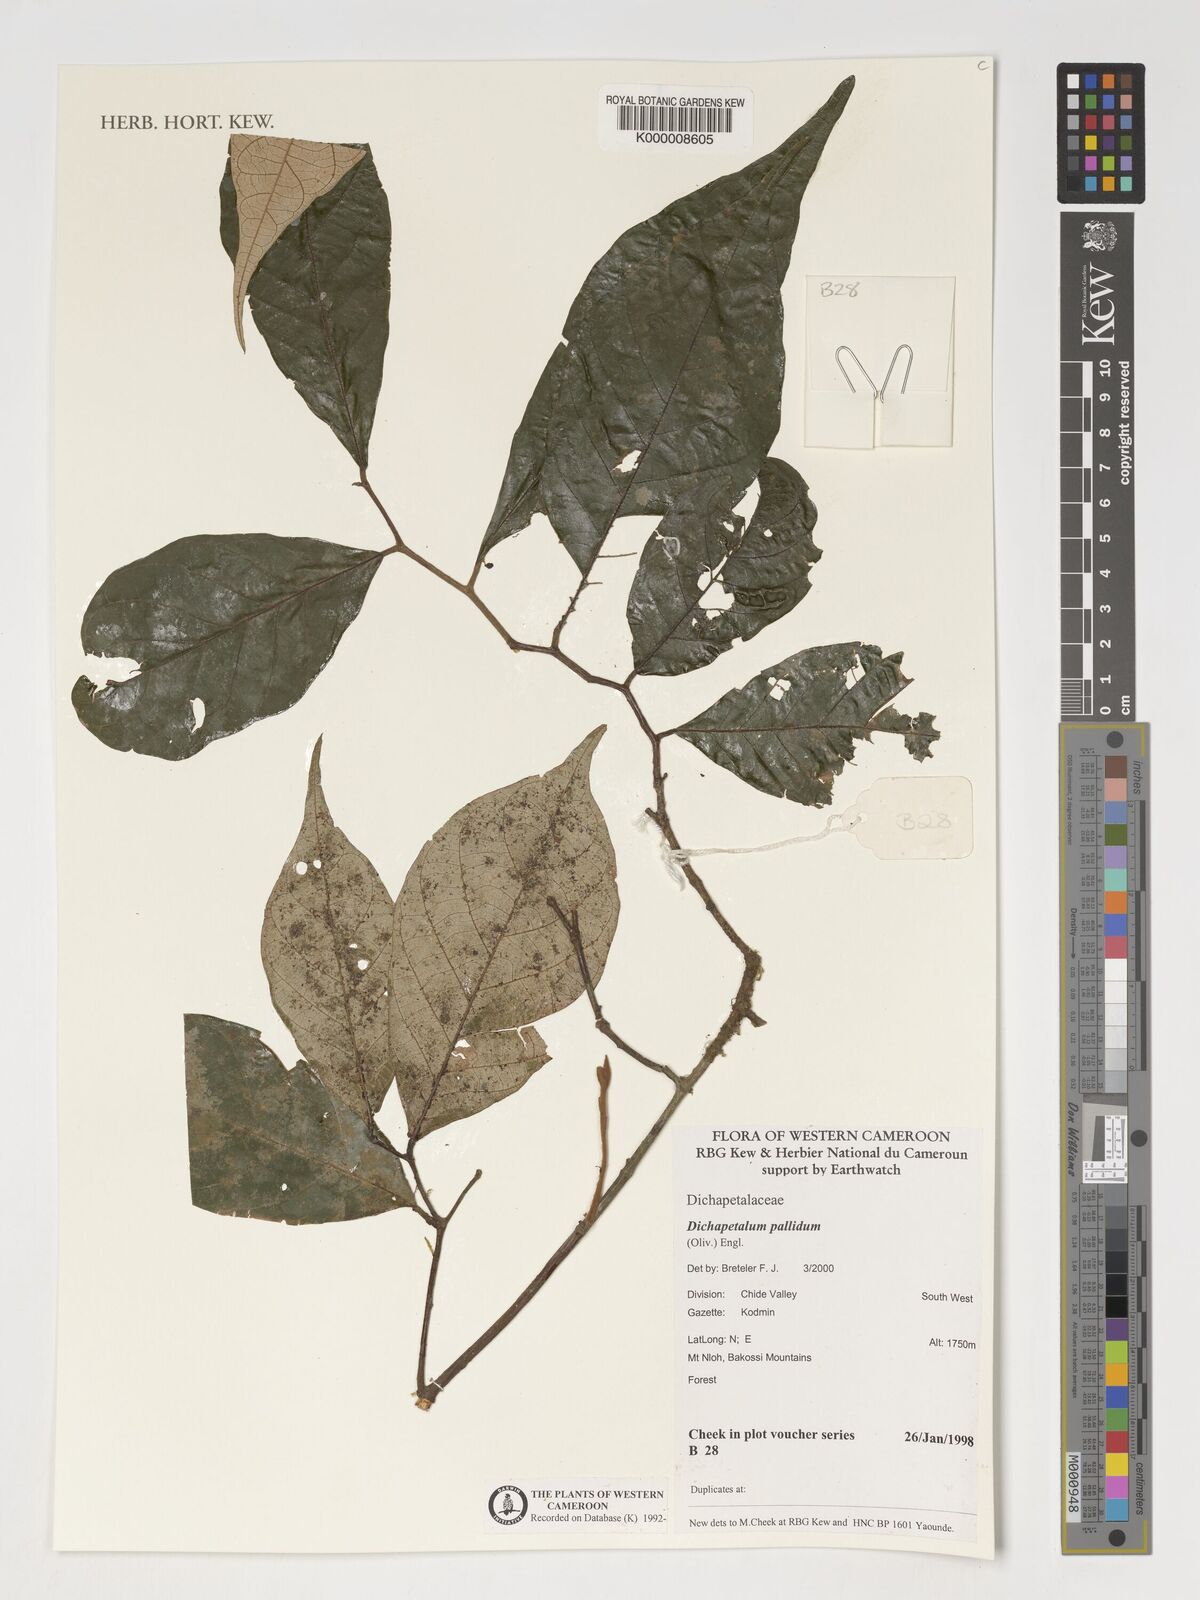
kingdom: Plantae
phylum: Tracheophyta
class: Magnoliopsida
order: Malpighiales
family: Dichapetalaceae
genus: Dichapetalum
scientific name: Dichapetalum pallidum
